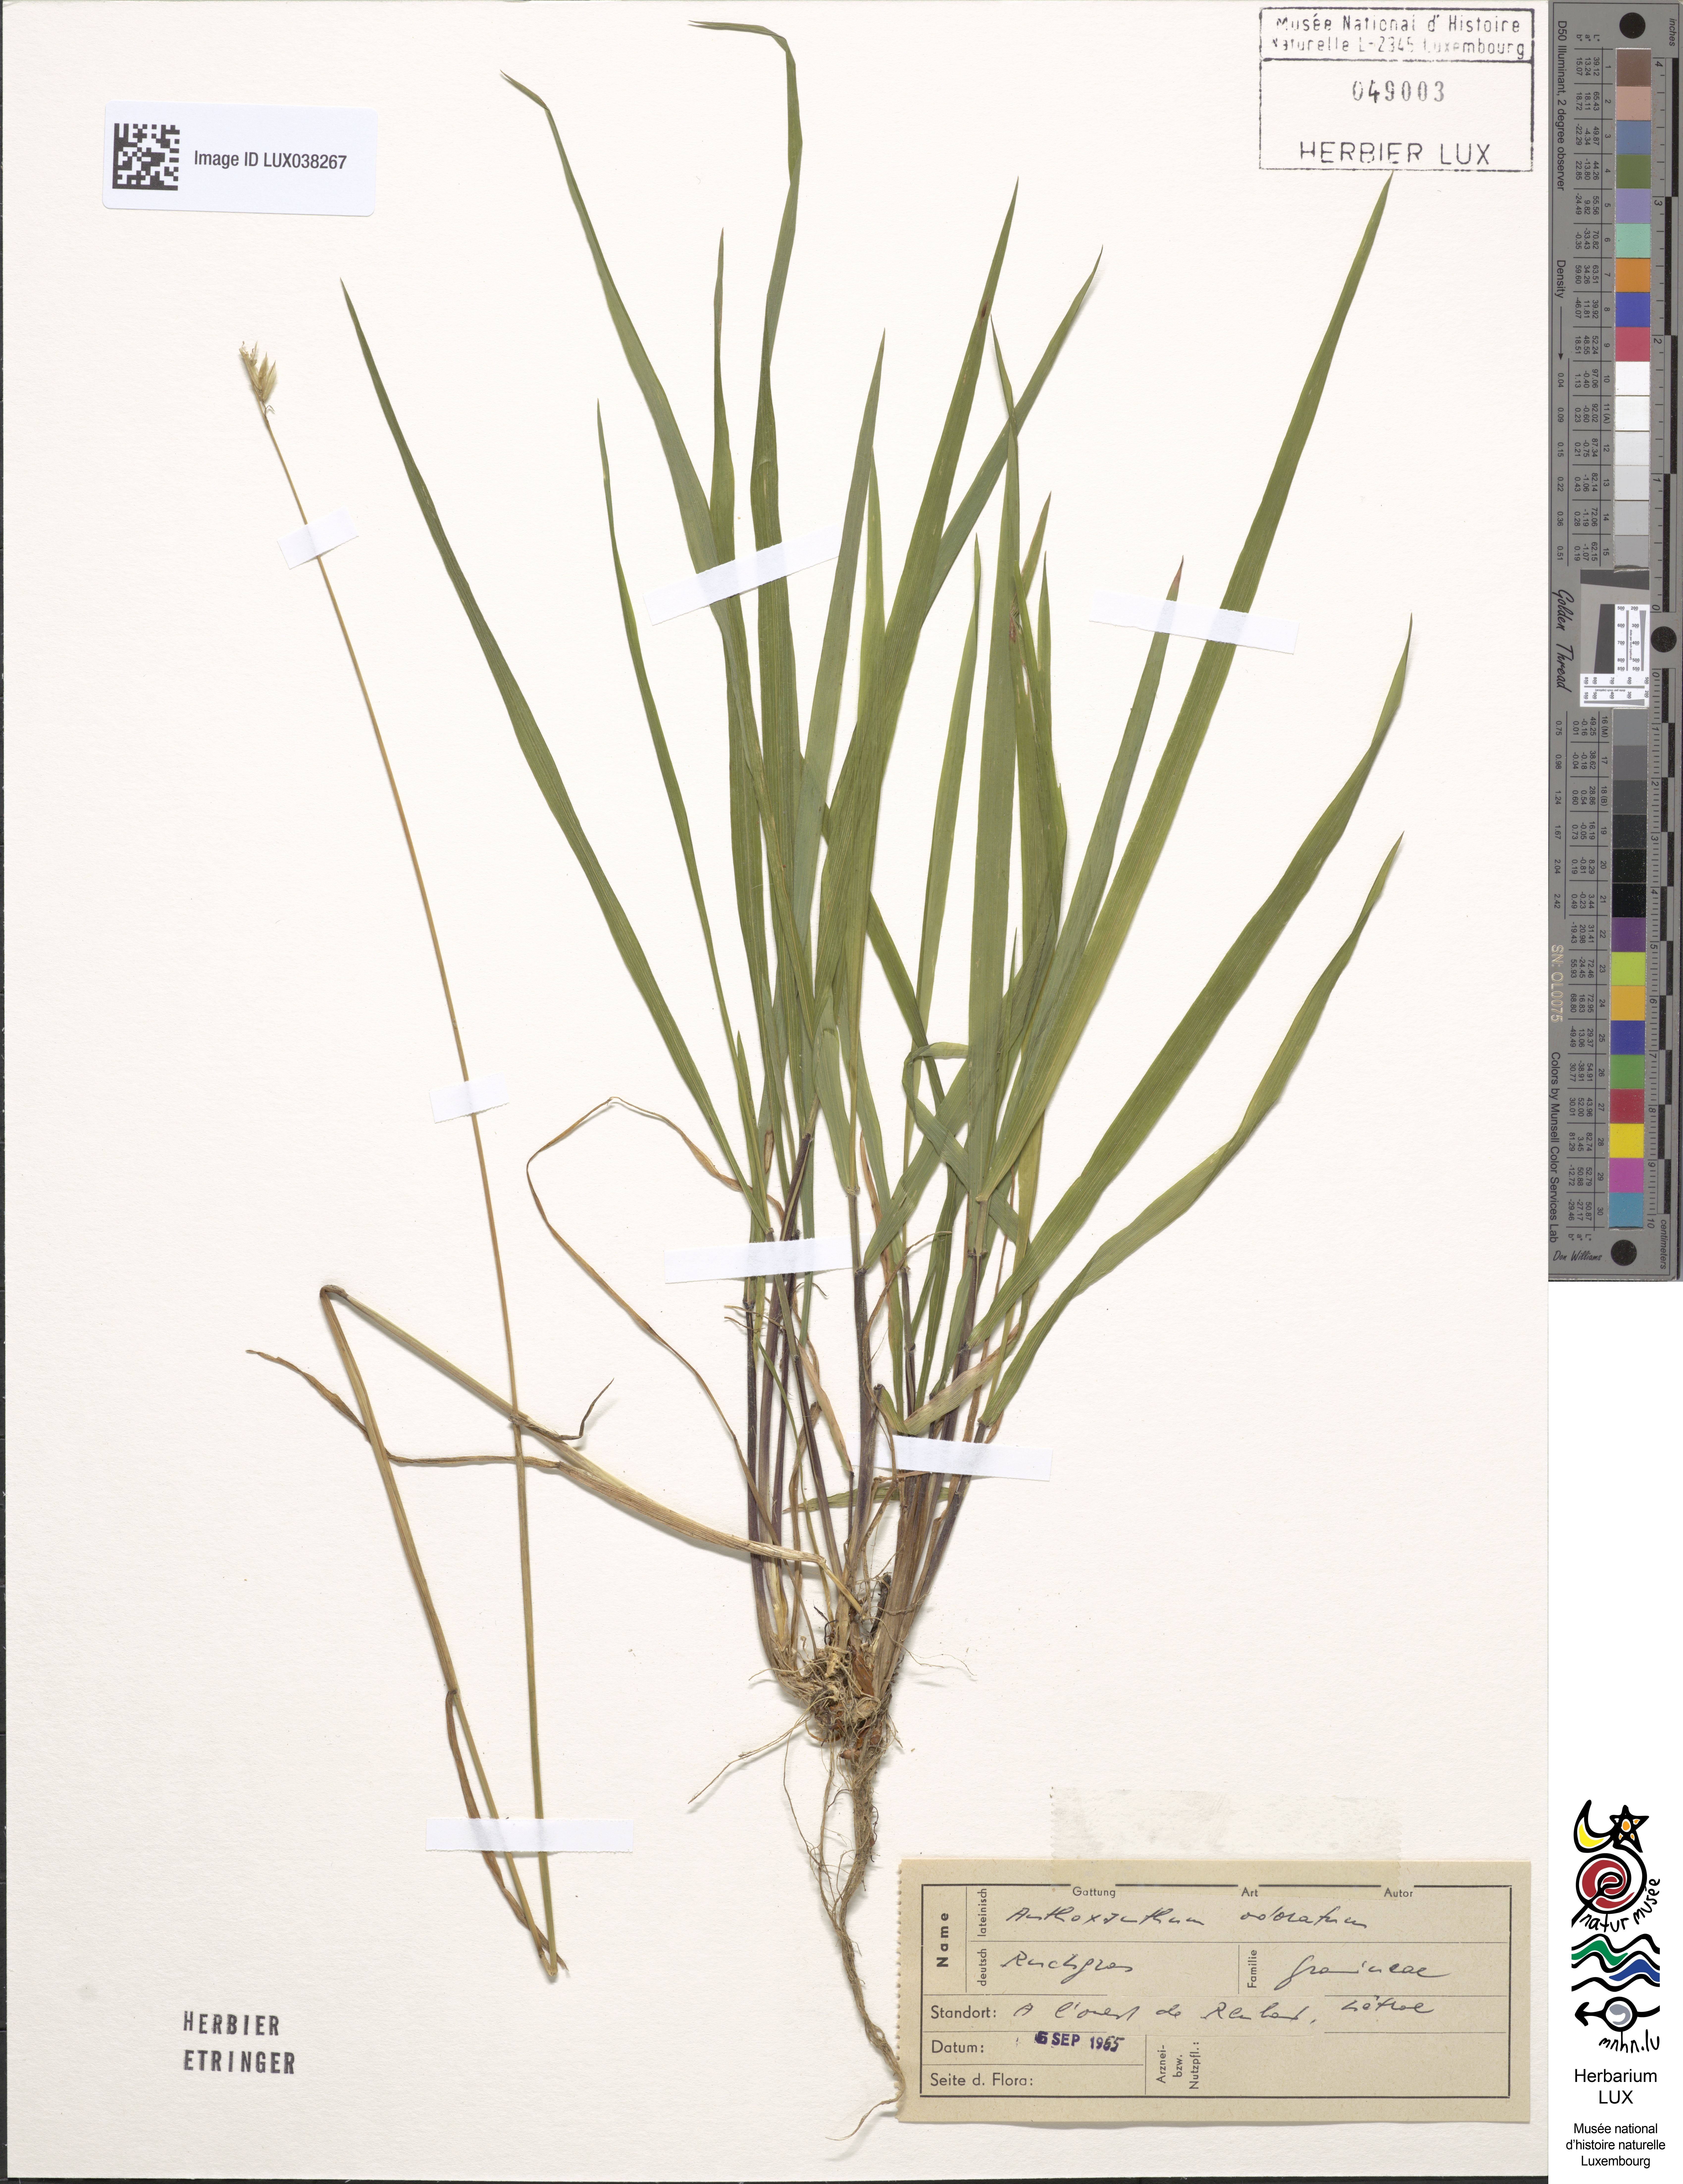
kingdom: Plantae
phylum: Tracheophyta
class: Liliopsida
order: Poales
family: Poaceae
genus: Anthoxanthum
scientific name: Anthoxanthum odoratum
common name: Sweet vernalgrass
